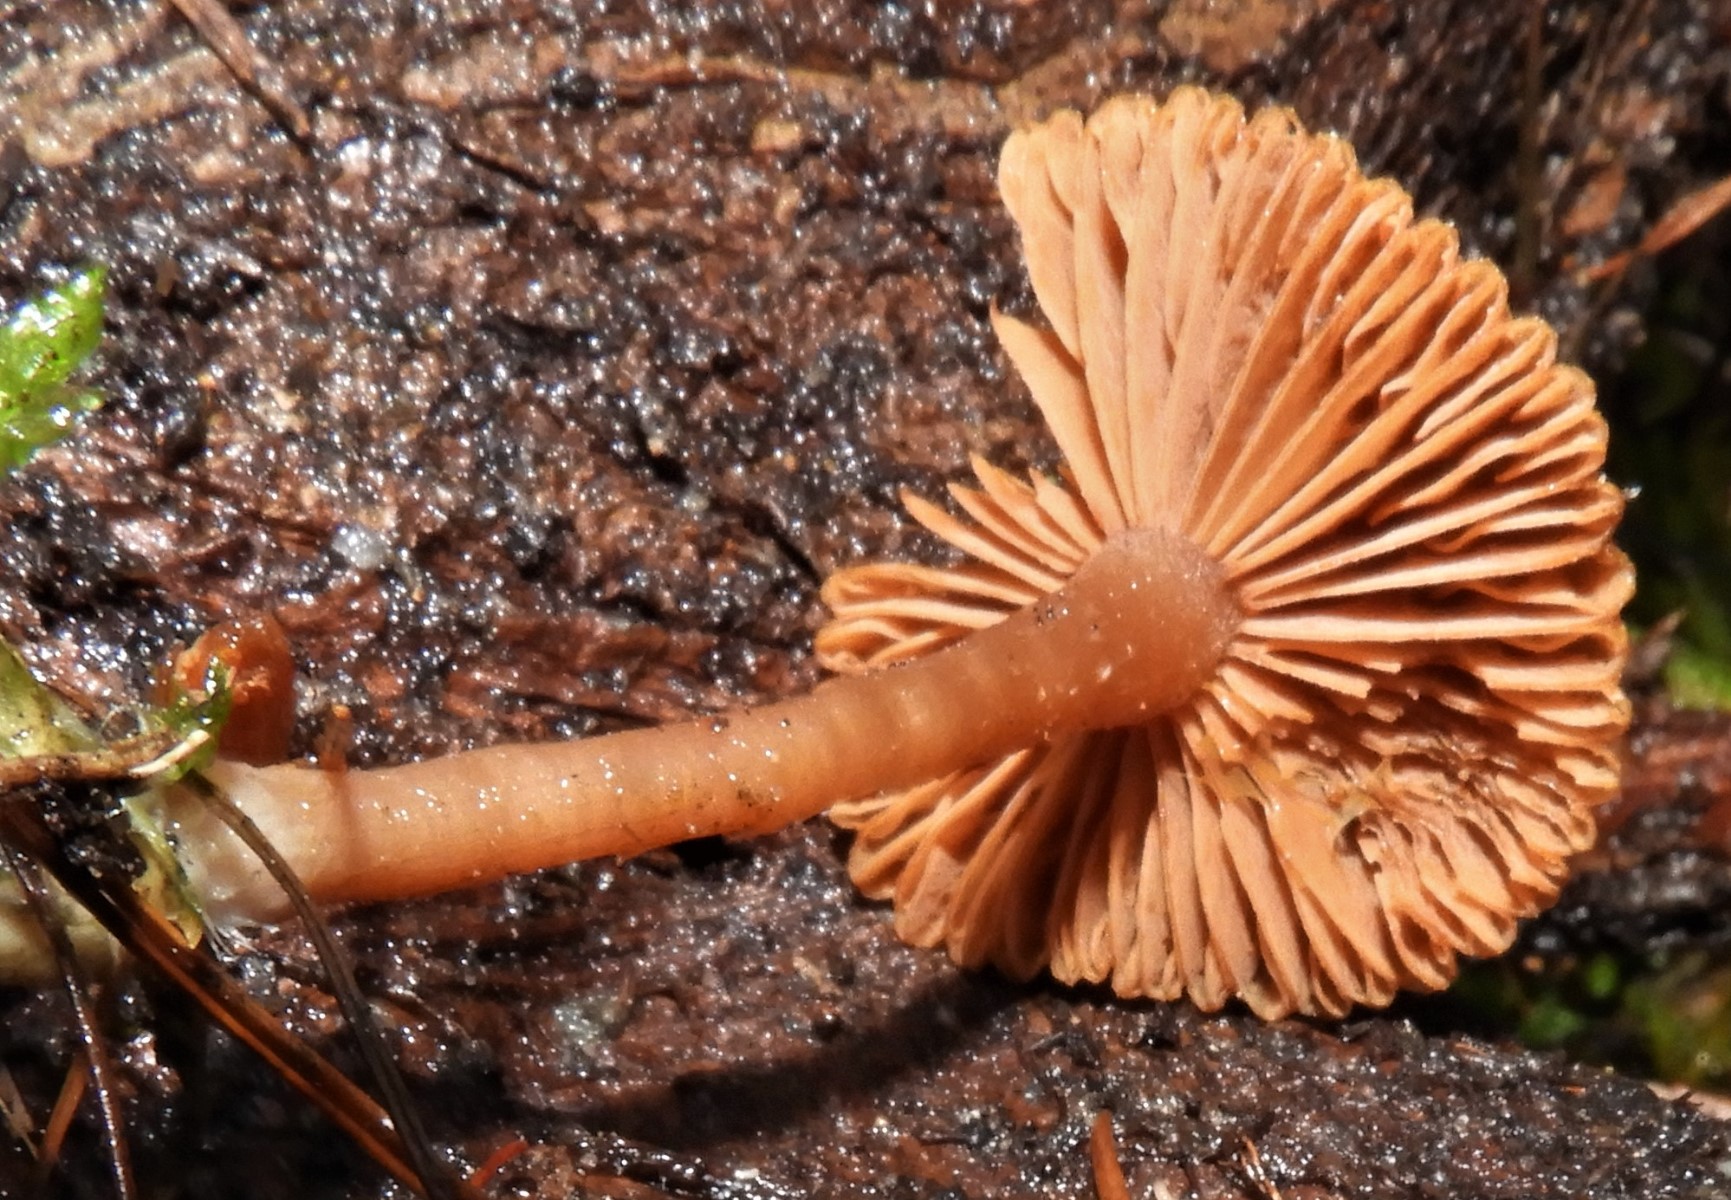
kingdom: Fungi
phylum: Basidiomycota
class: Agaricomycetes
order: Agaricales
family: Tubariaceae
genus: Tubaria
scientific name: Tubaria furfuracea
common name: kliddet fnughat
